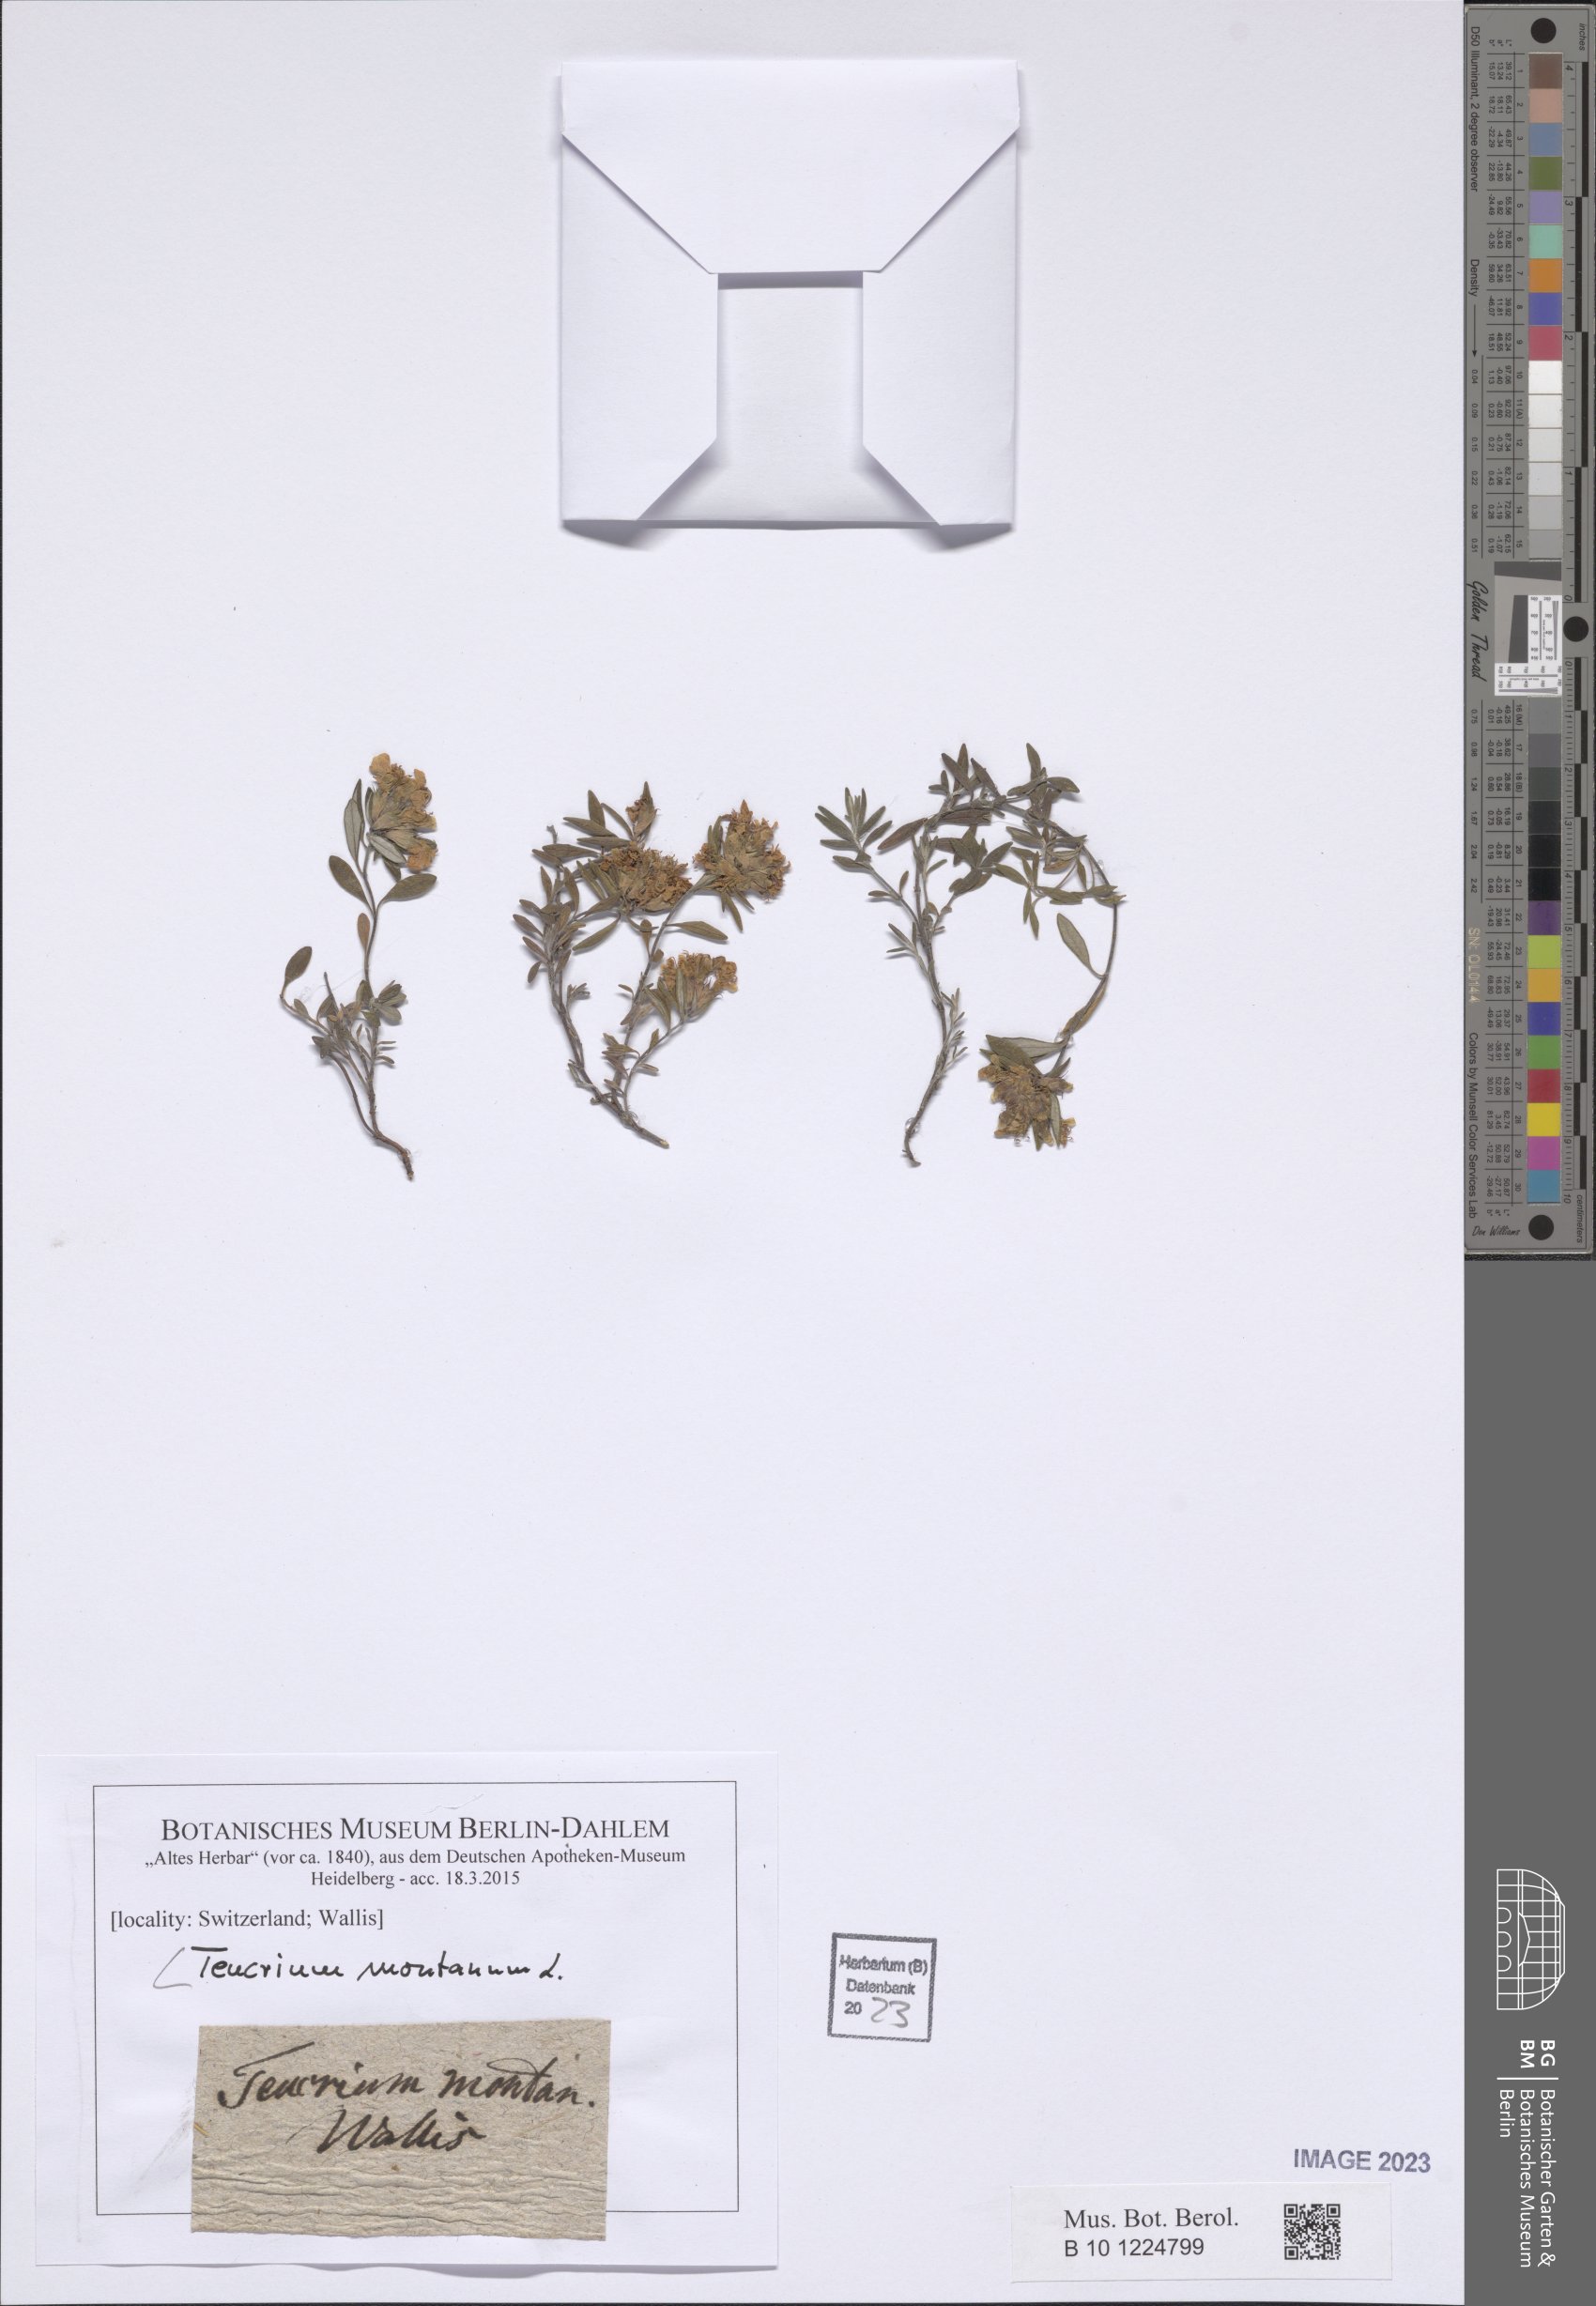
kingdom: Plantae
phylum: Tracheophyta
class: Magnoliopsida
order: Lamiales
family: Lamiaceae
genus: Teucrium
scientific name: Teucrium montanum
